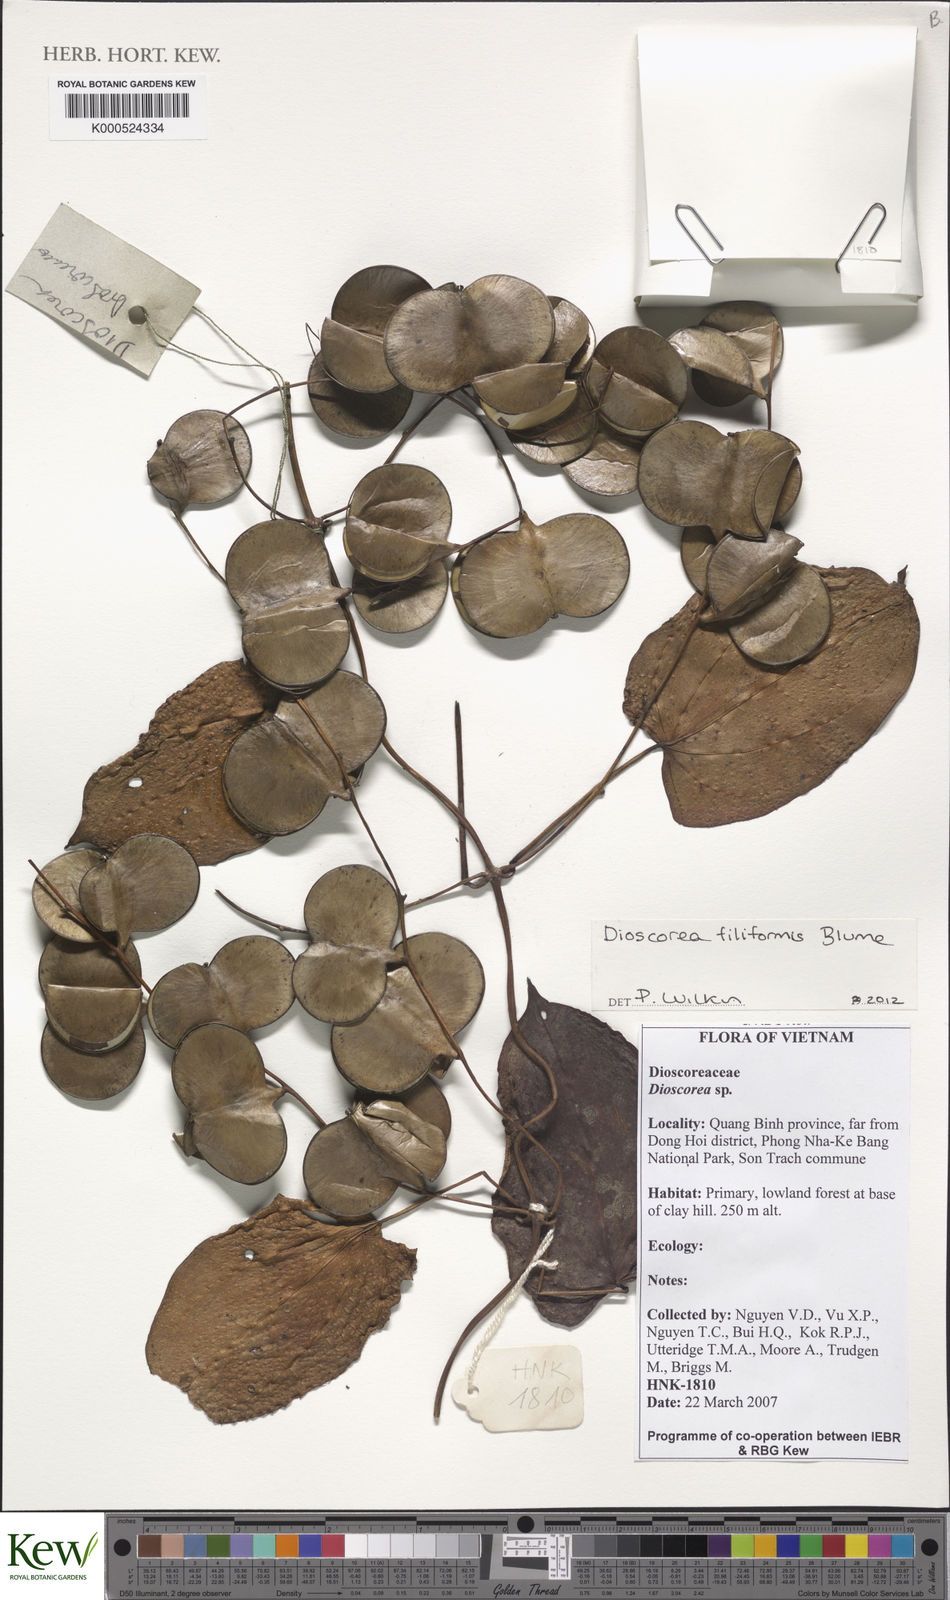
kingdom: Plantae
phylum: Tracheophyta
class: Liliopsida
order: Dioscoreales
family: Dioscoreaceae
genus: Dioscorea
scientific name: Dioscorea filiformis
